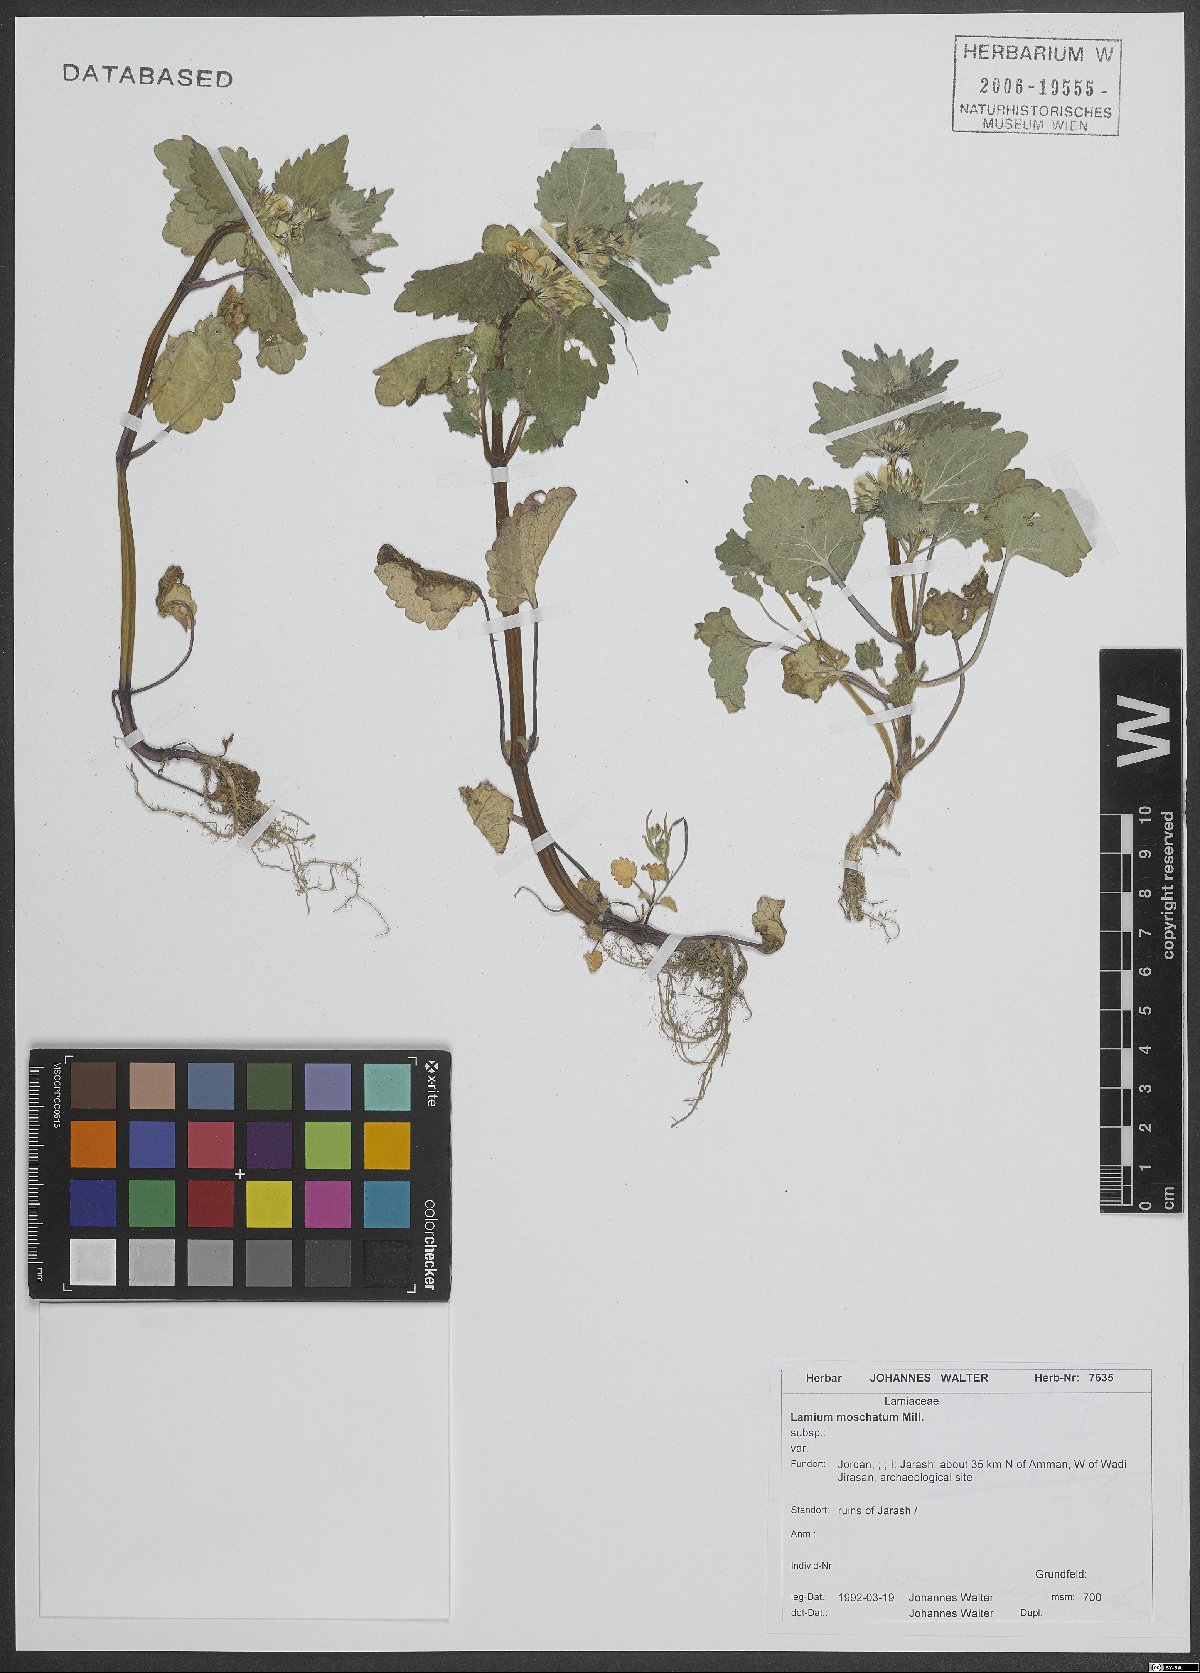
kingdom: Plantae
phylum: Tracheophyta
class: Magnoliopsida
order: Lamiales
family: Lamiaceae
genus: Lamium
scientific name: Lamium moschatum
